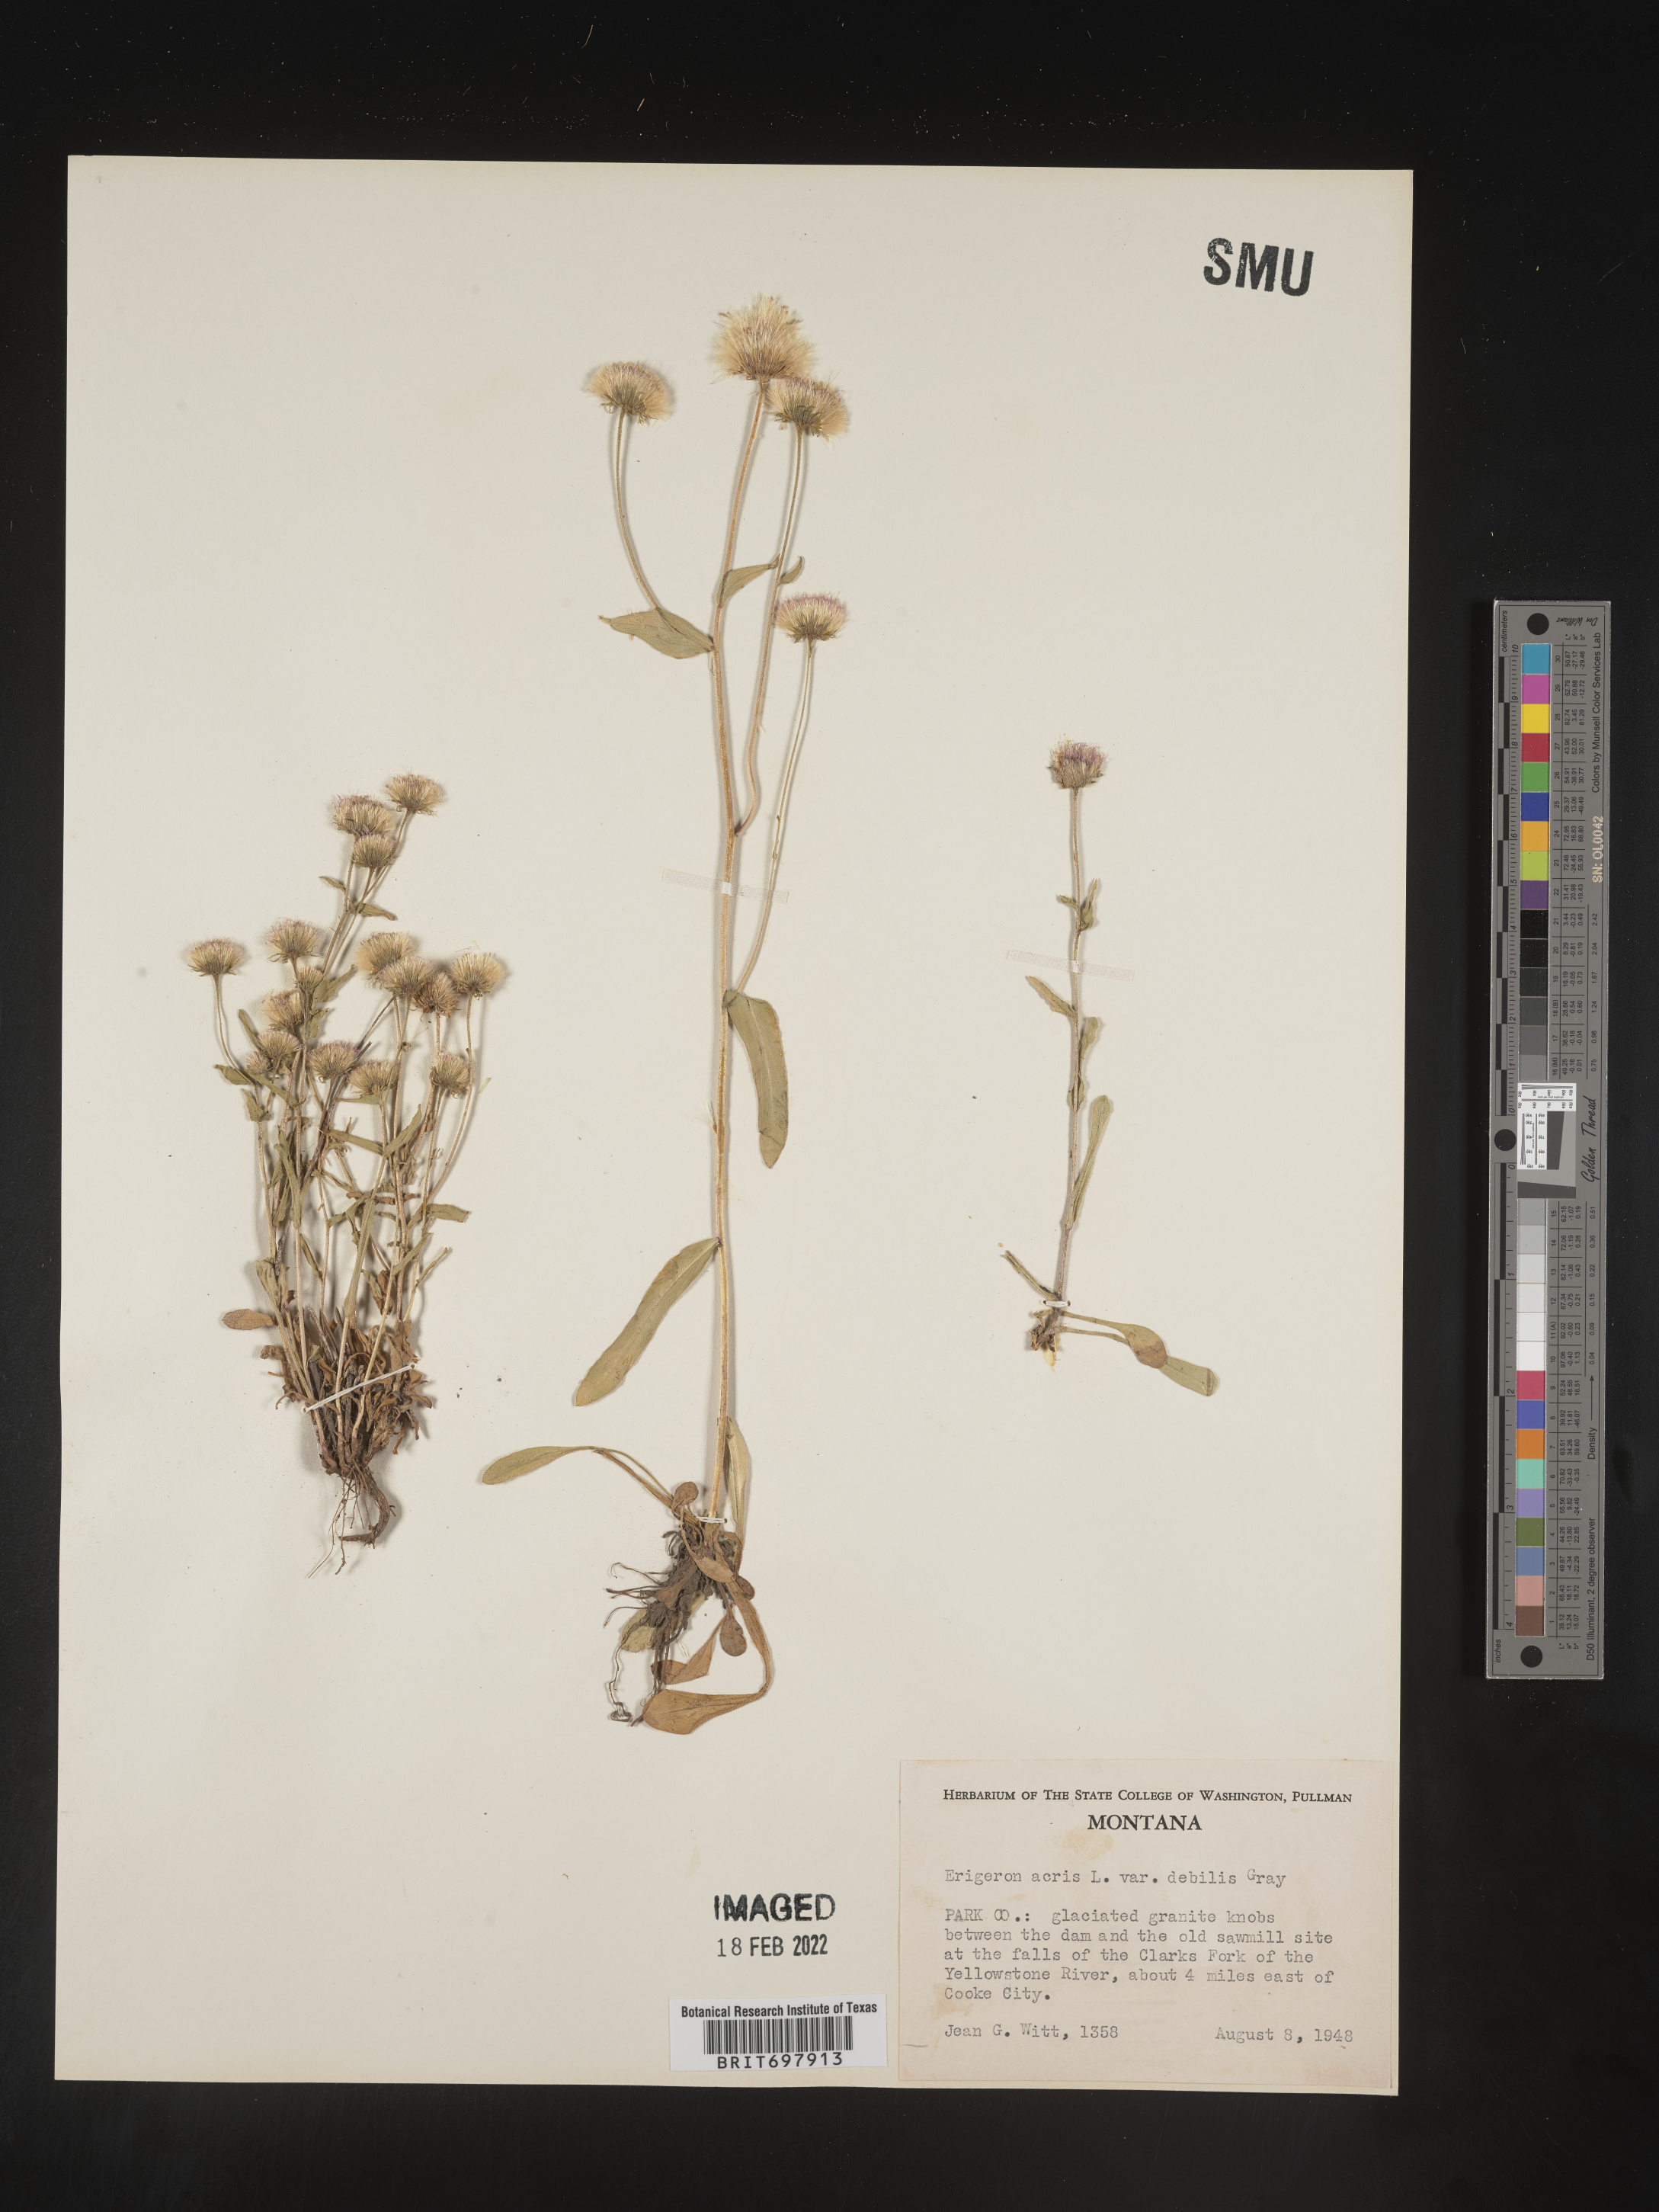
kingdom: Plantae
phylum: Tracheophyta
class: Magnoliopsida
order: Asterales
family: Asteraceae
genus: Erigeron
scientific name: Erigeron nivalis
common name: Snow fleabane
